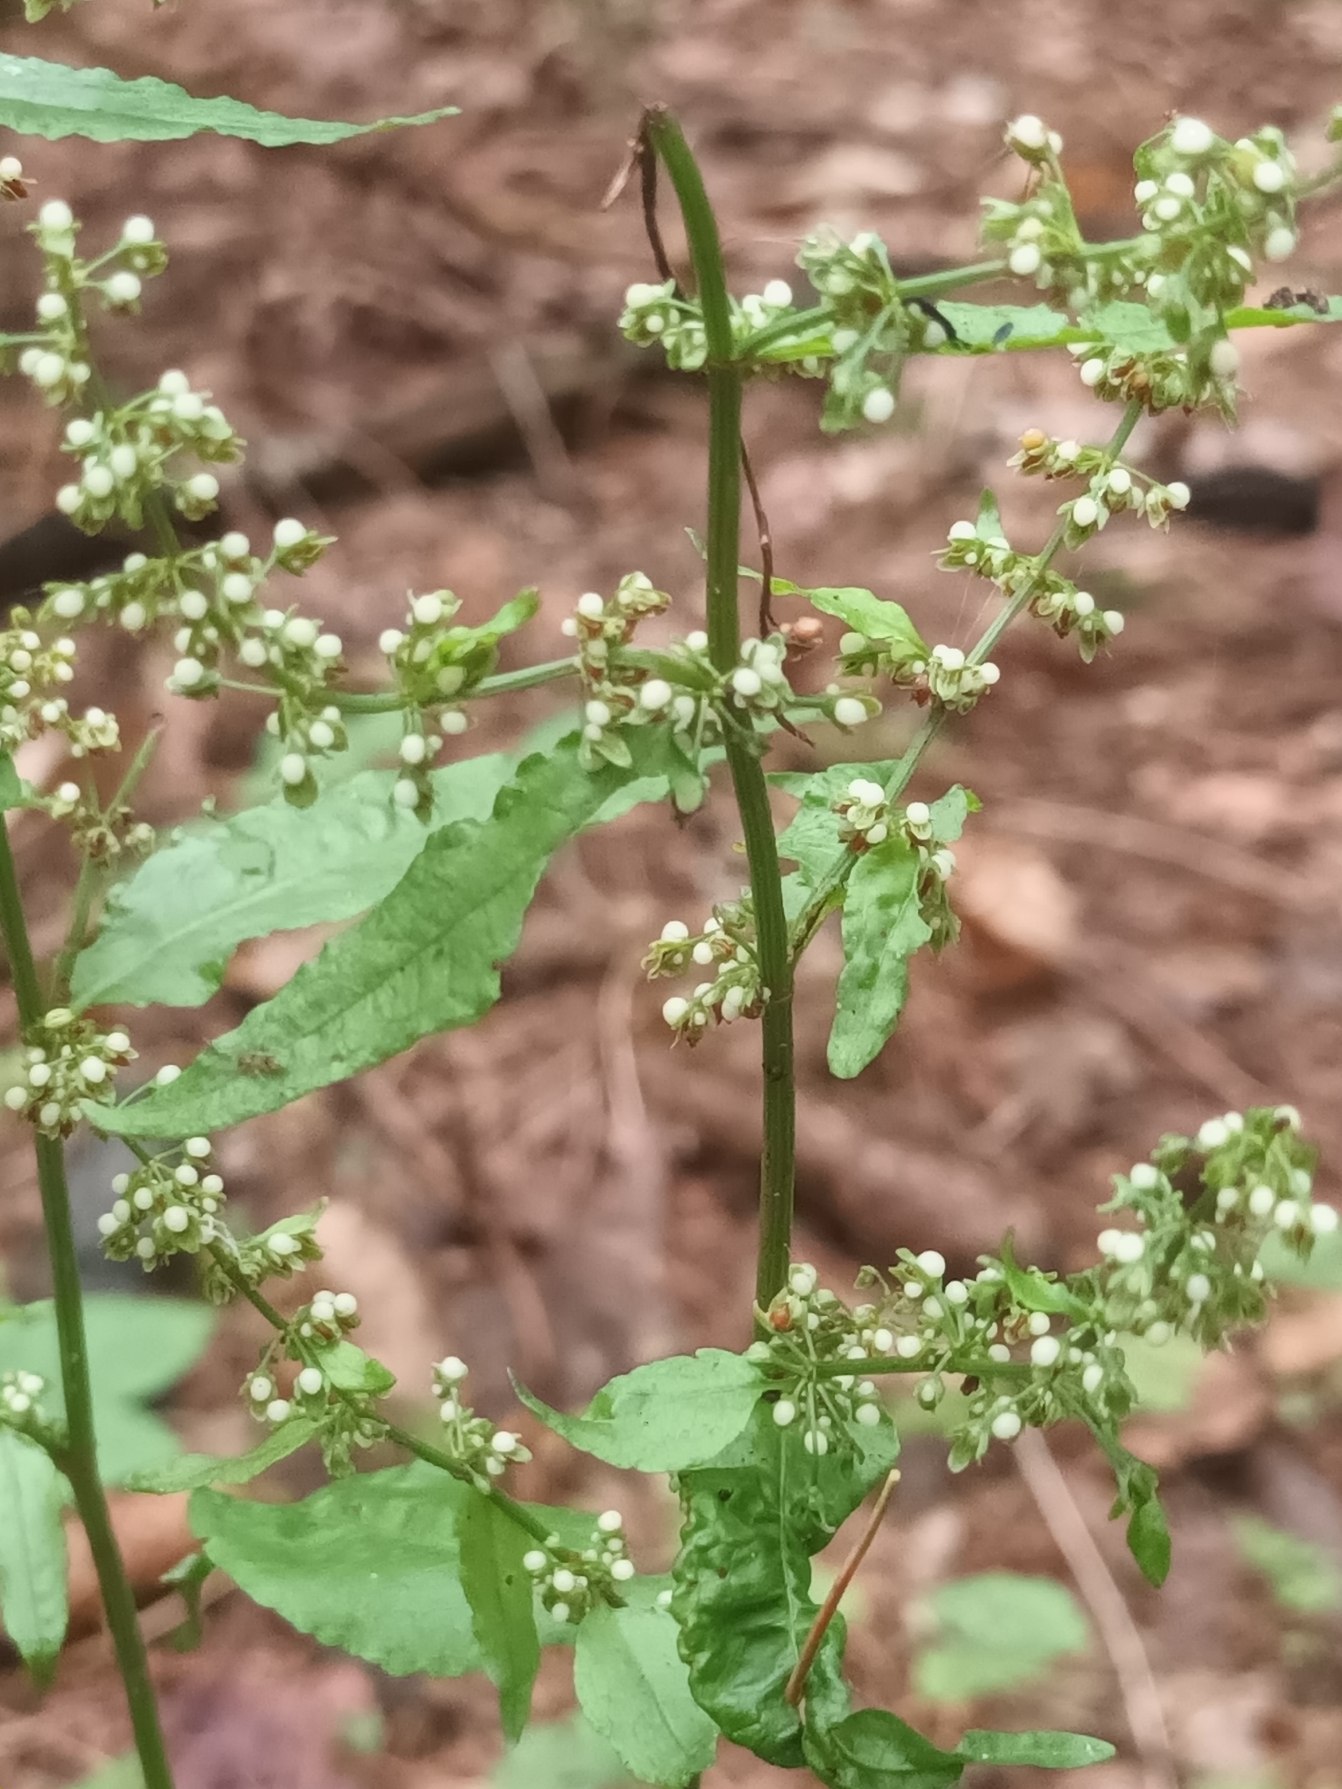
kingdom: Plantae
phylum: Tracheophyta
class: Magnoliopsida
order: Caryophyllales
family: Polygonaceae
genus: Rumex
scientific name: Rumex sanguineus
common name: Skov-skræppe
